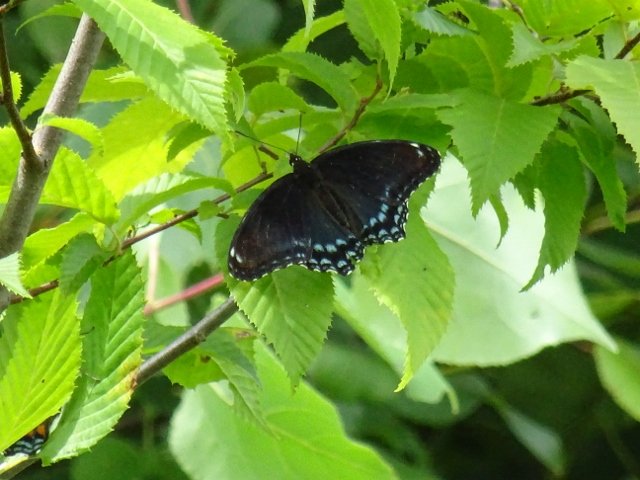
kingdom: Animalia
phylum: Arthropoda
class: Insecta
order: Lepidoptera
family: Nymphalidae
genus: Limenitis
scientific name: Limenitis astyanax
